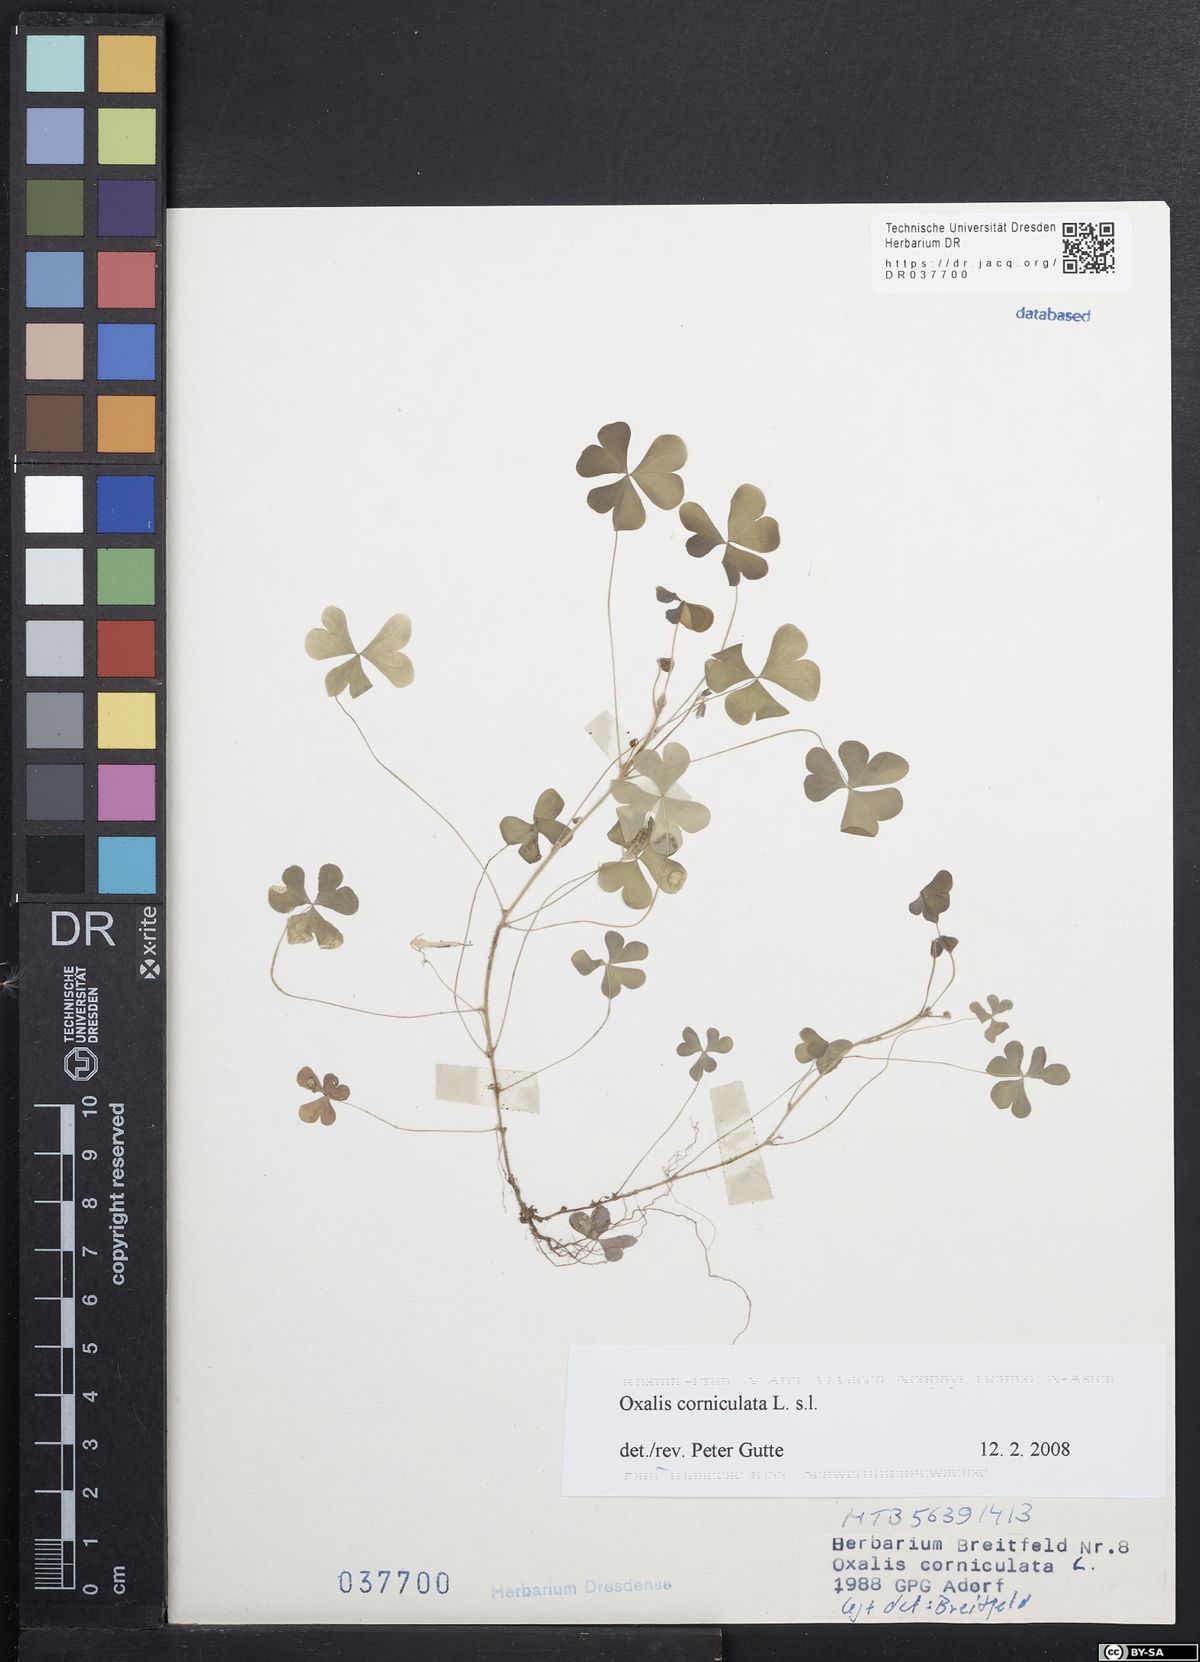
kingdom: Plantae
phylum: Tracheophyta
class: Magnoliopsida
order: Oxalidales
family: Oxalidaceae
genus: Oxalis
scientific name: Oxalis corniculata
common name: Procumbent yellow-sorrel
